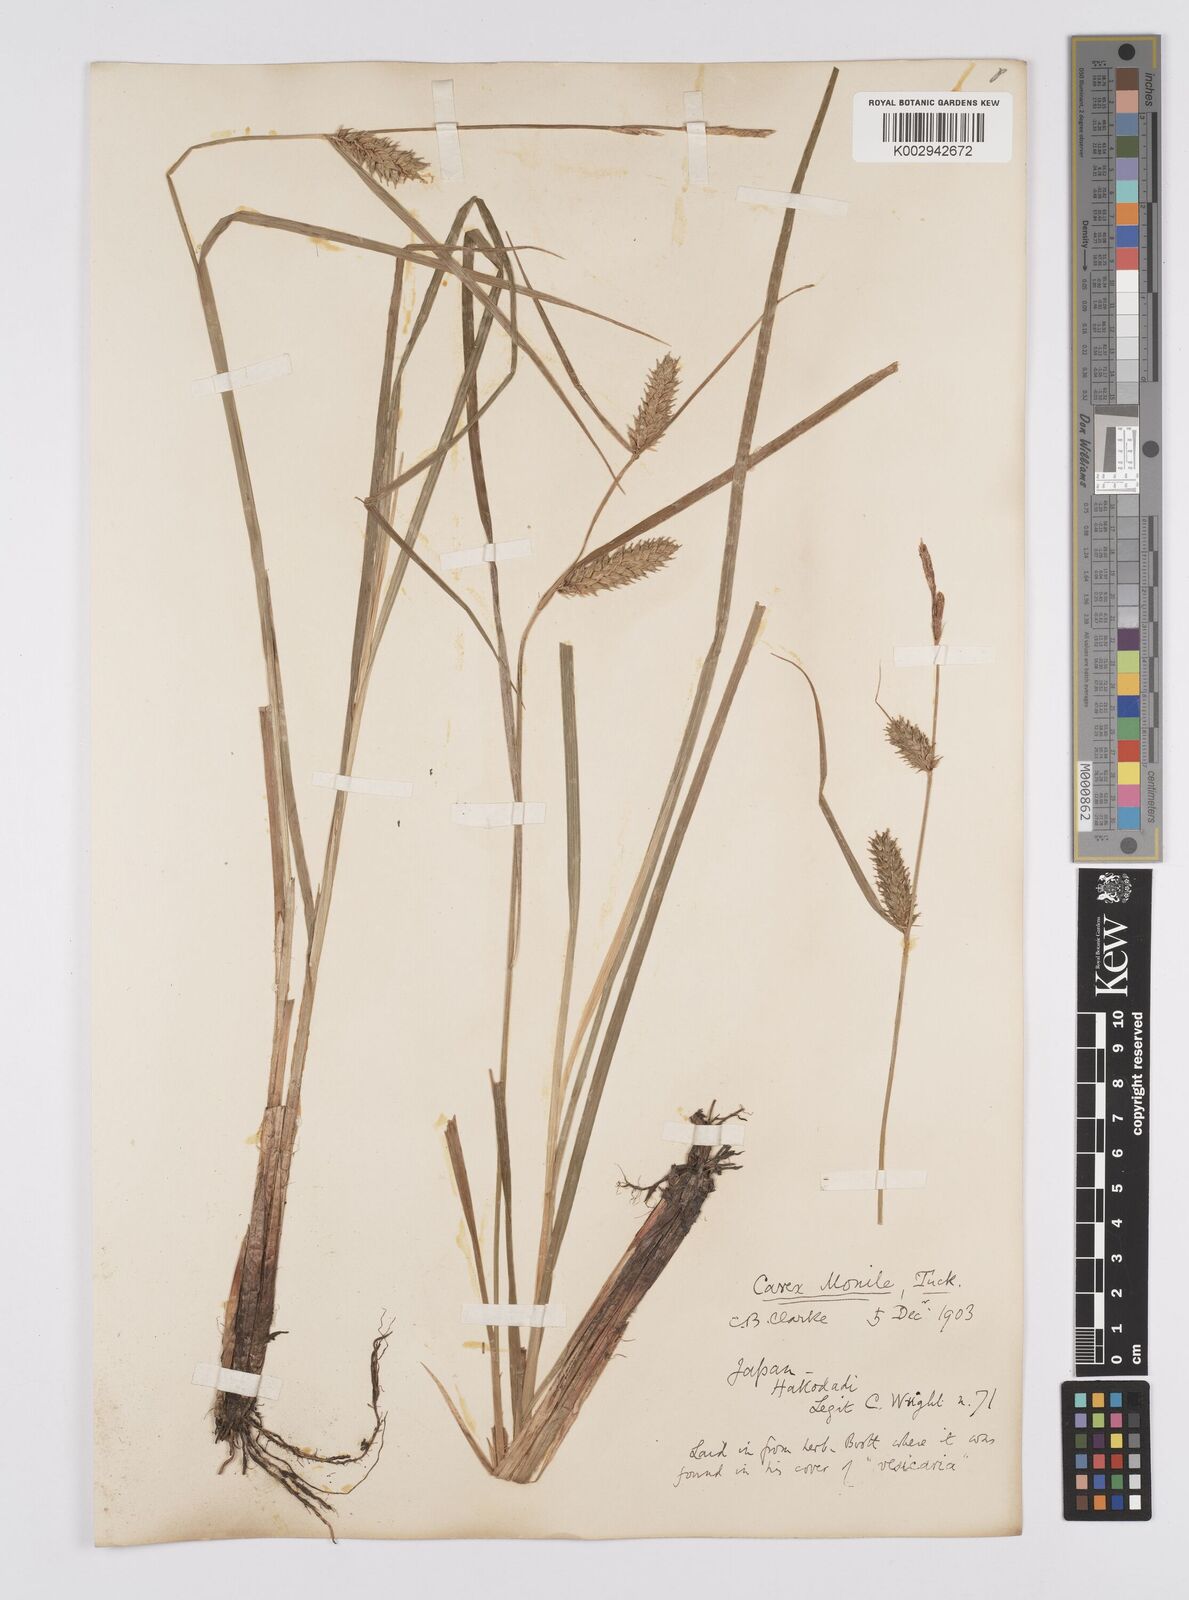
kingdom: Plantae
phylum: Tracheophyta
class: Liliopsida
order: Poales
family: Cyperaceae
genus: Carex
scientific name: Carex vesicaria
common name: Bladder-sedge
